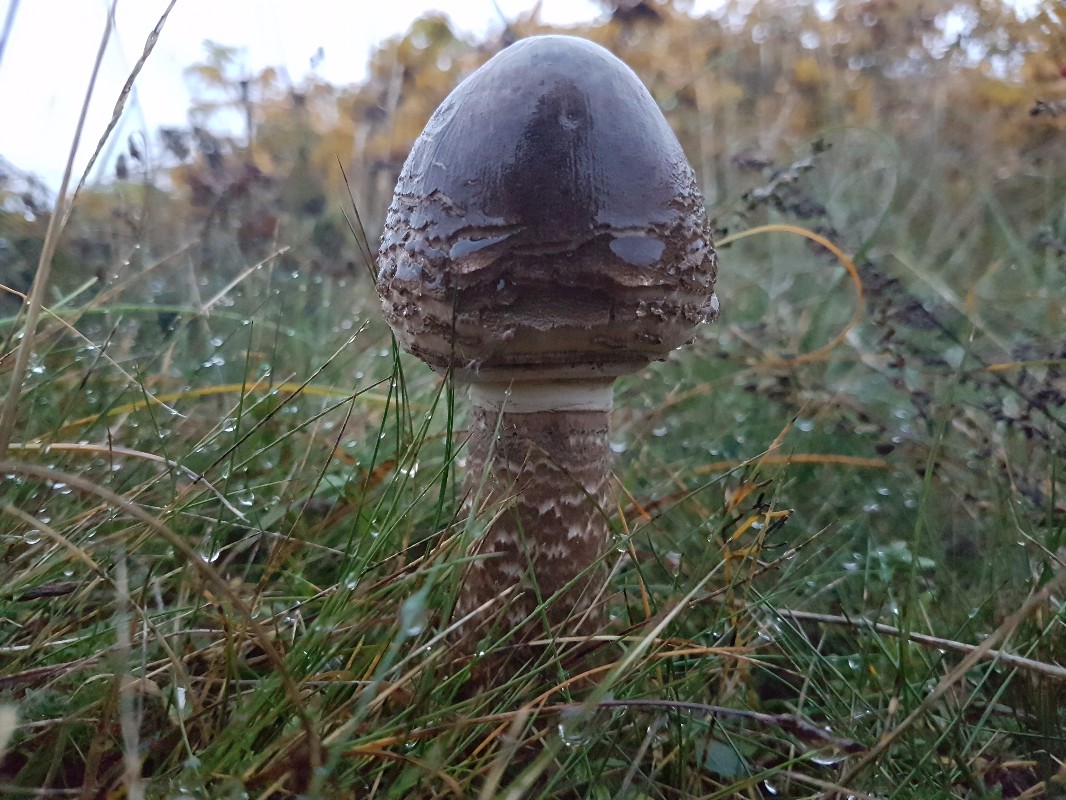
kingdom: Fungi
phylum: Basidiomycota
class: Agaricomycetes
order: Agaricales
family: Agaricaceae
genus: Macrolepiota
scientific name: Macrolepiota procera
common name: stor kæmpeparasolhat
